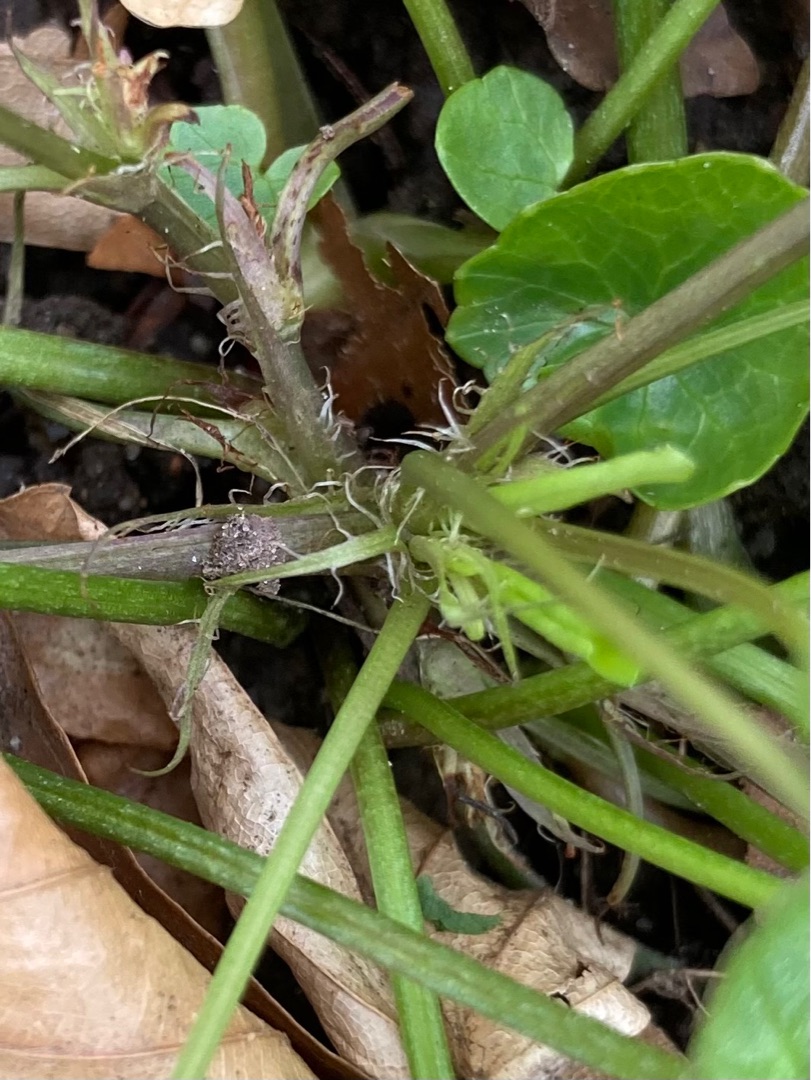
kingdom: Plantae
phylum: Tracheophyta
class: Magnoliopsida
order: Malpighiales
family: Violaceae
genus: Viola
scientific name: Viola reichenbachiana
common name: Skov-viol
